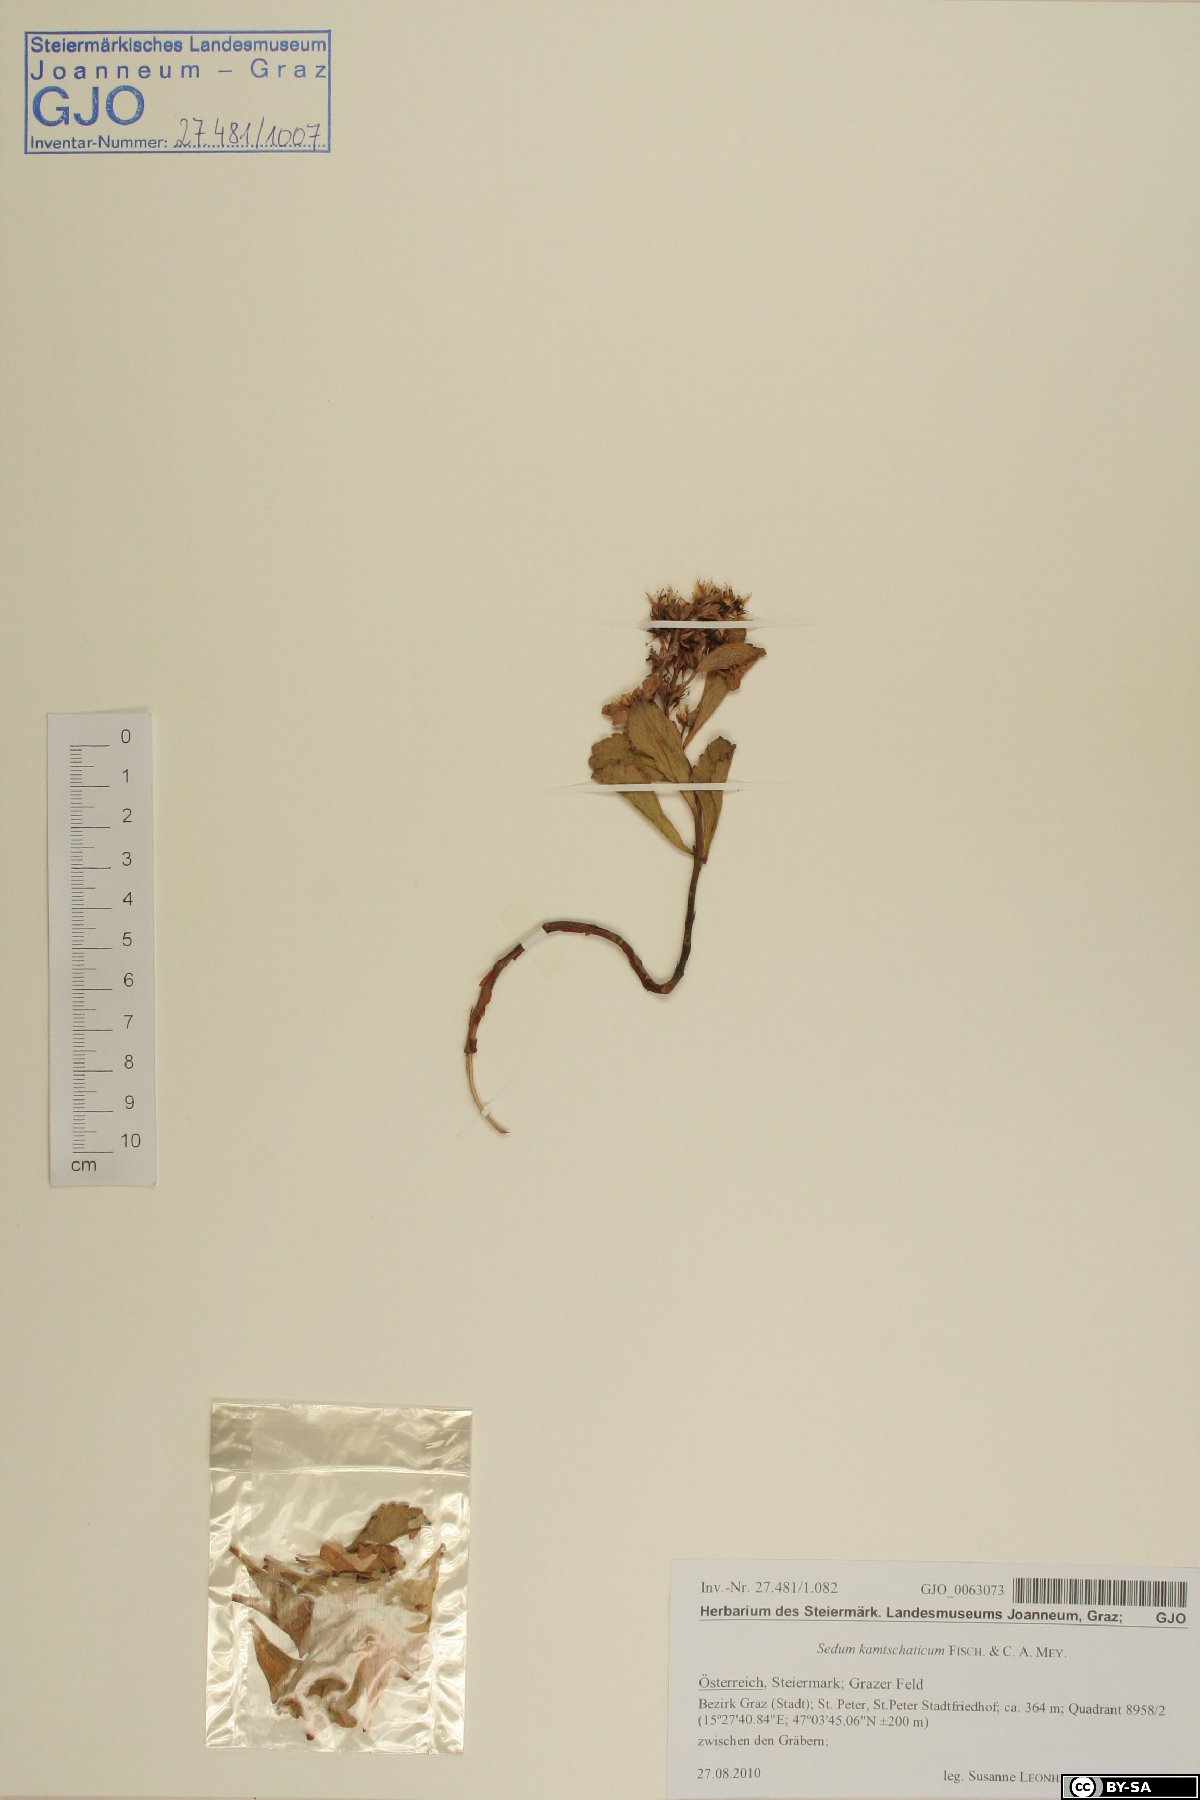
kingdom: Plantae
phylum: Tracheophyta
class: Magnoliopsida
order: Saxifragales
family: Crassulaceae
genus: Phedimus
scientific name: Phedimus kamtschaticus
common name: Orange stonecrop
